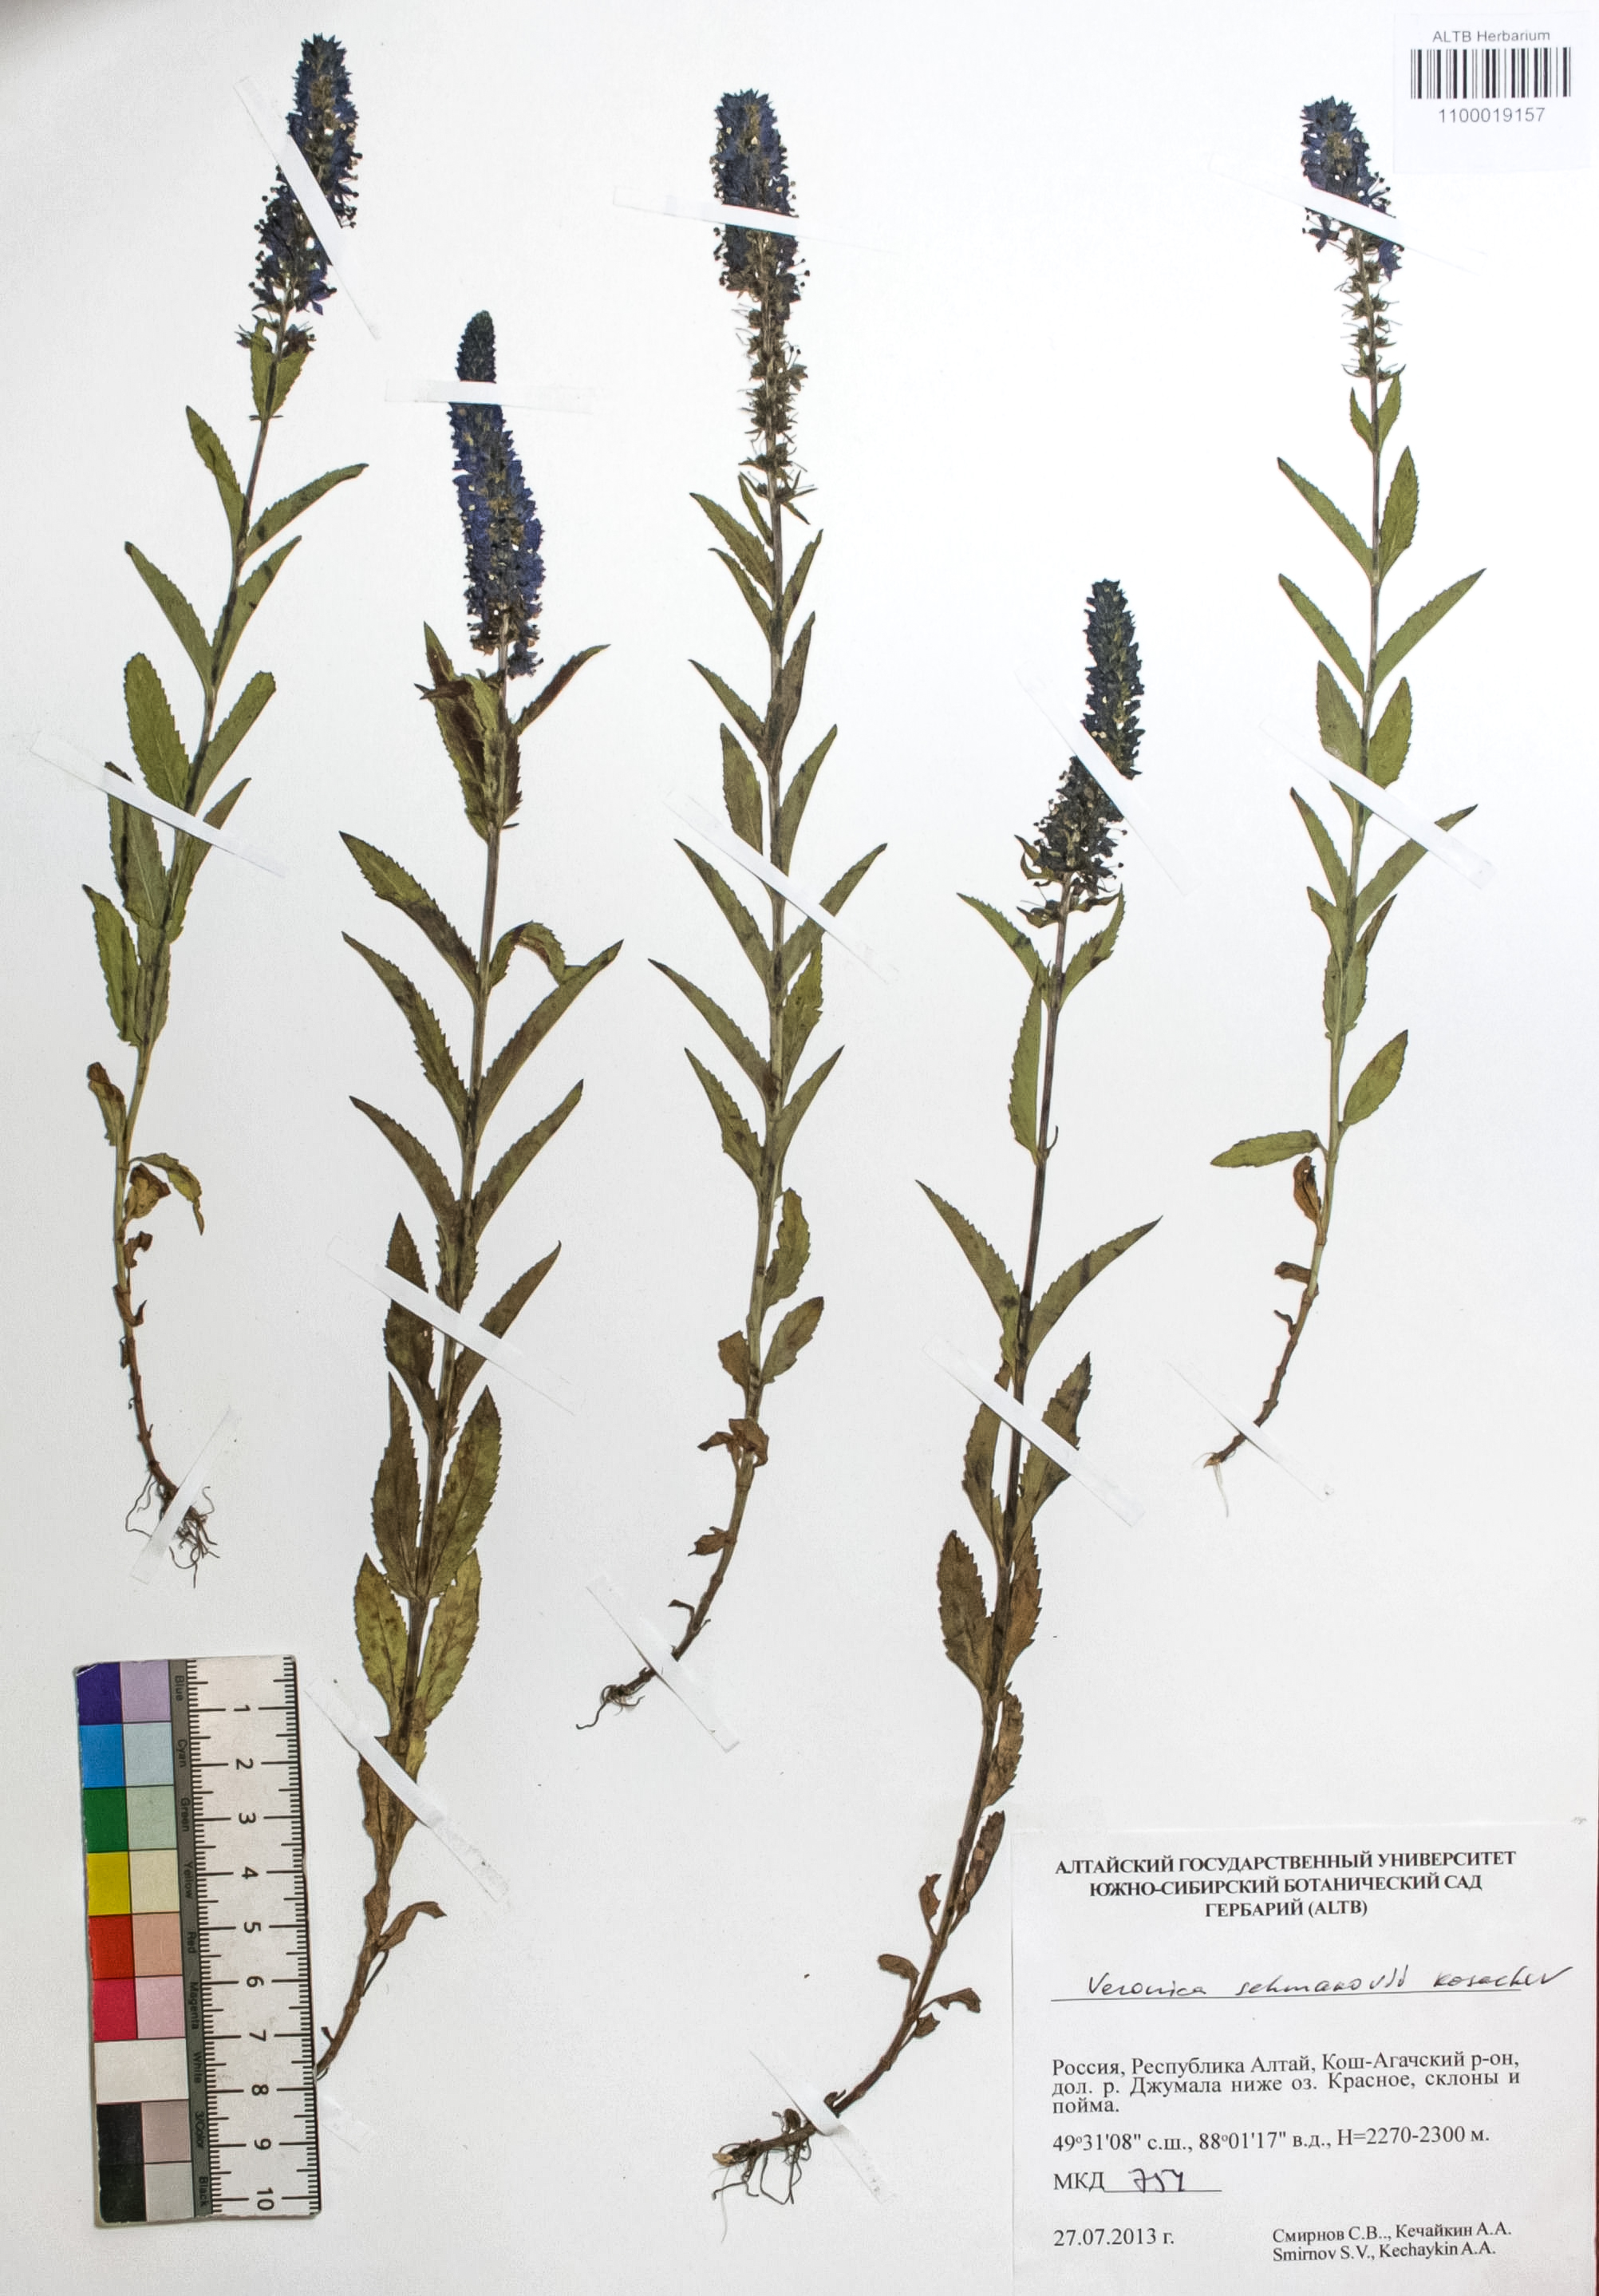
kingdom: Plantae
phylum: Tracheophyta
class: Magnoliopsida
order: Lamiales
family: Plantaginaceae
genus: Veronica
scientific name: Veronica schmakovii
